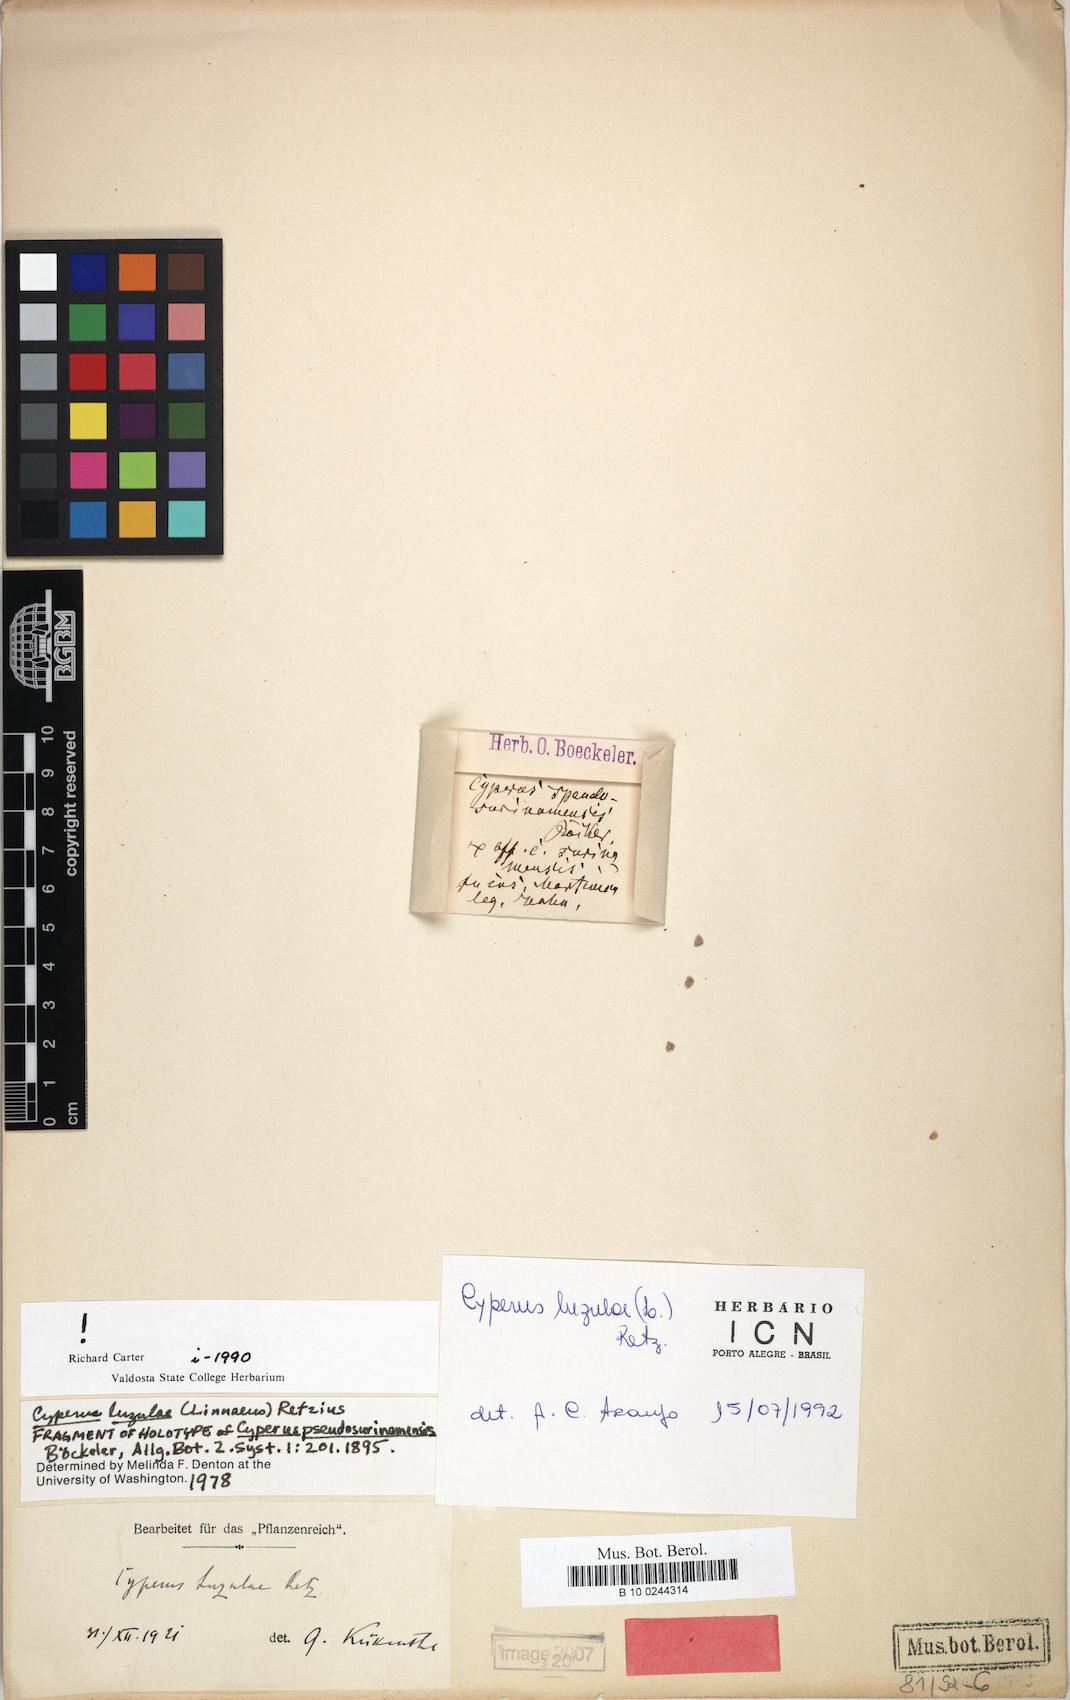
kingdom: Plantae
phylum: Tracheophyta
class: Liliopsida
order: Poales
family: Cyperaceae
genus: Cyperus
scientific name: Cyperus luzulae
